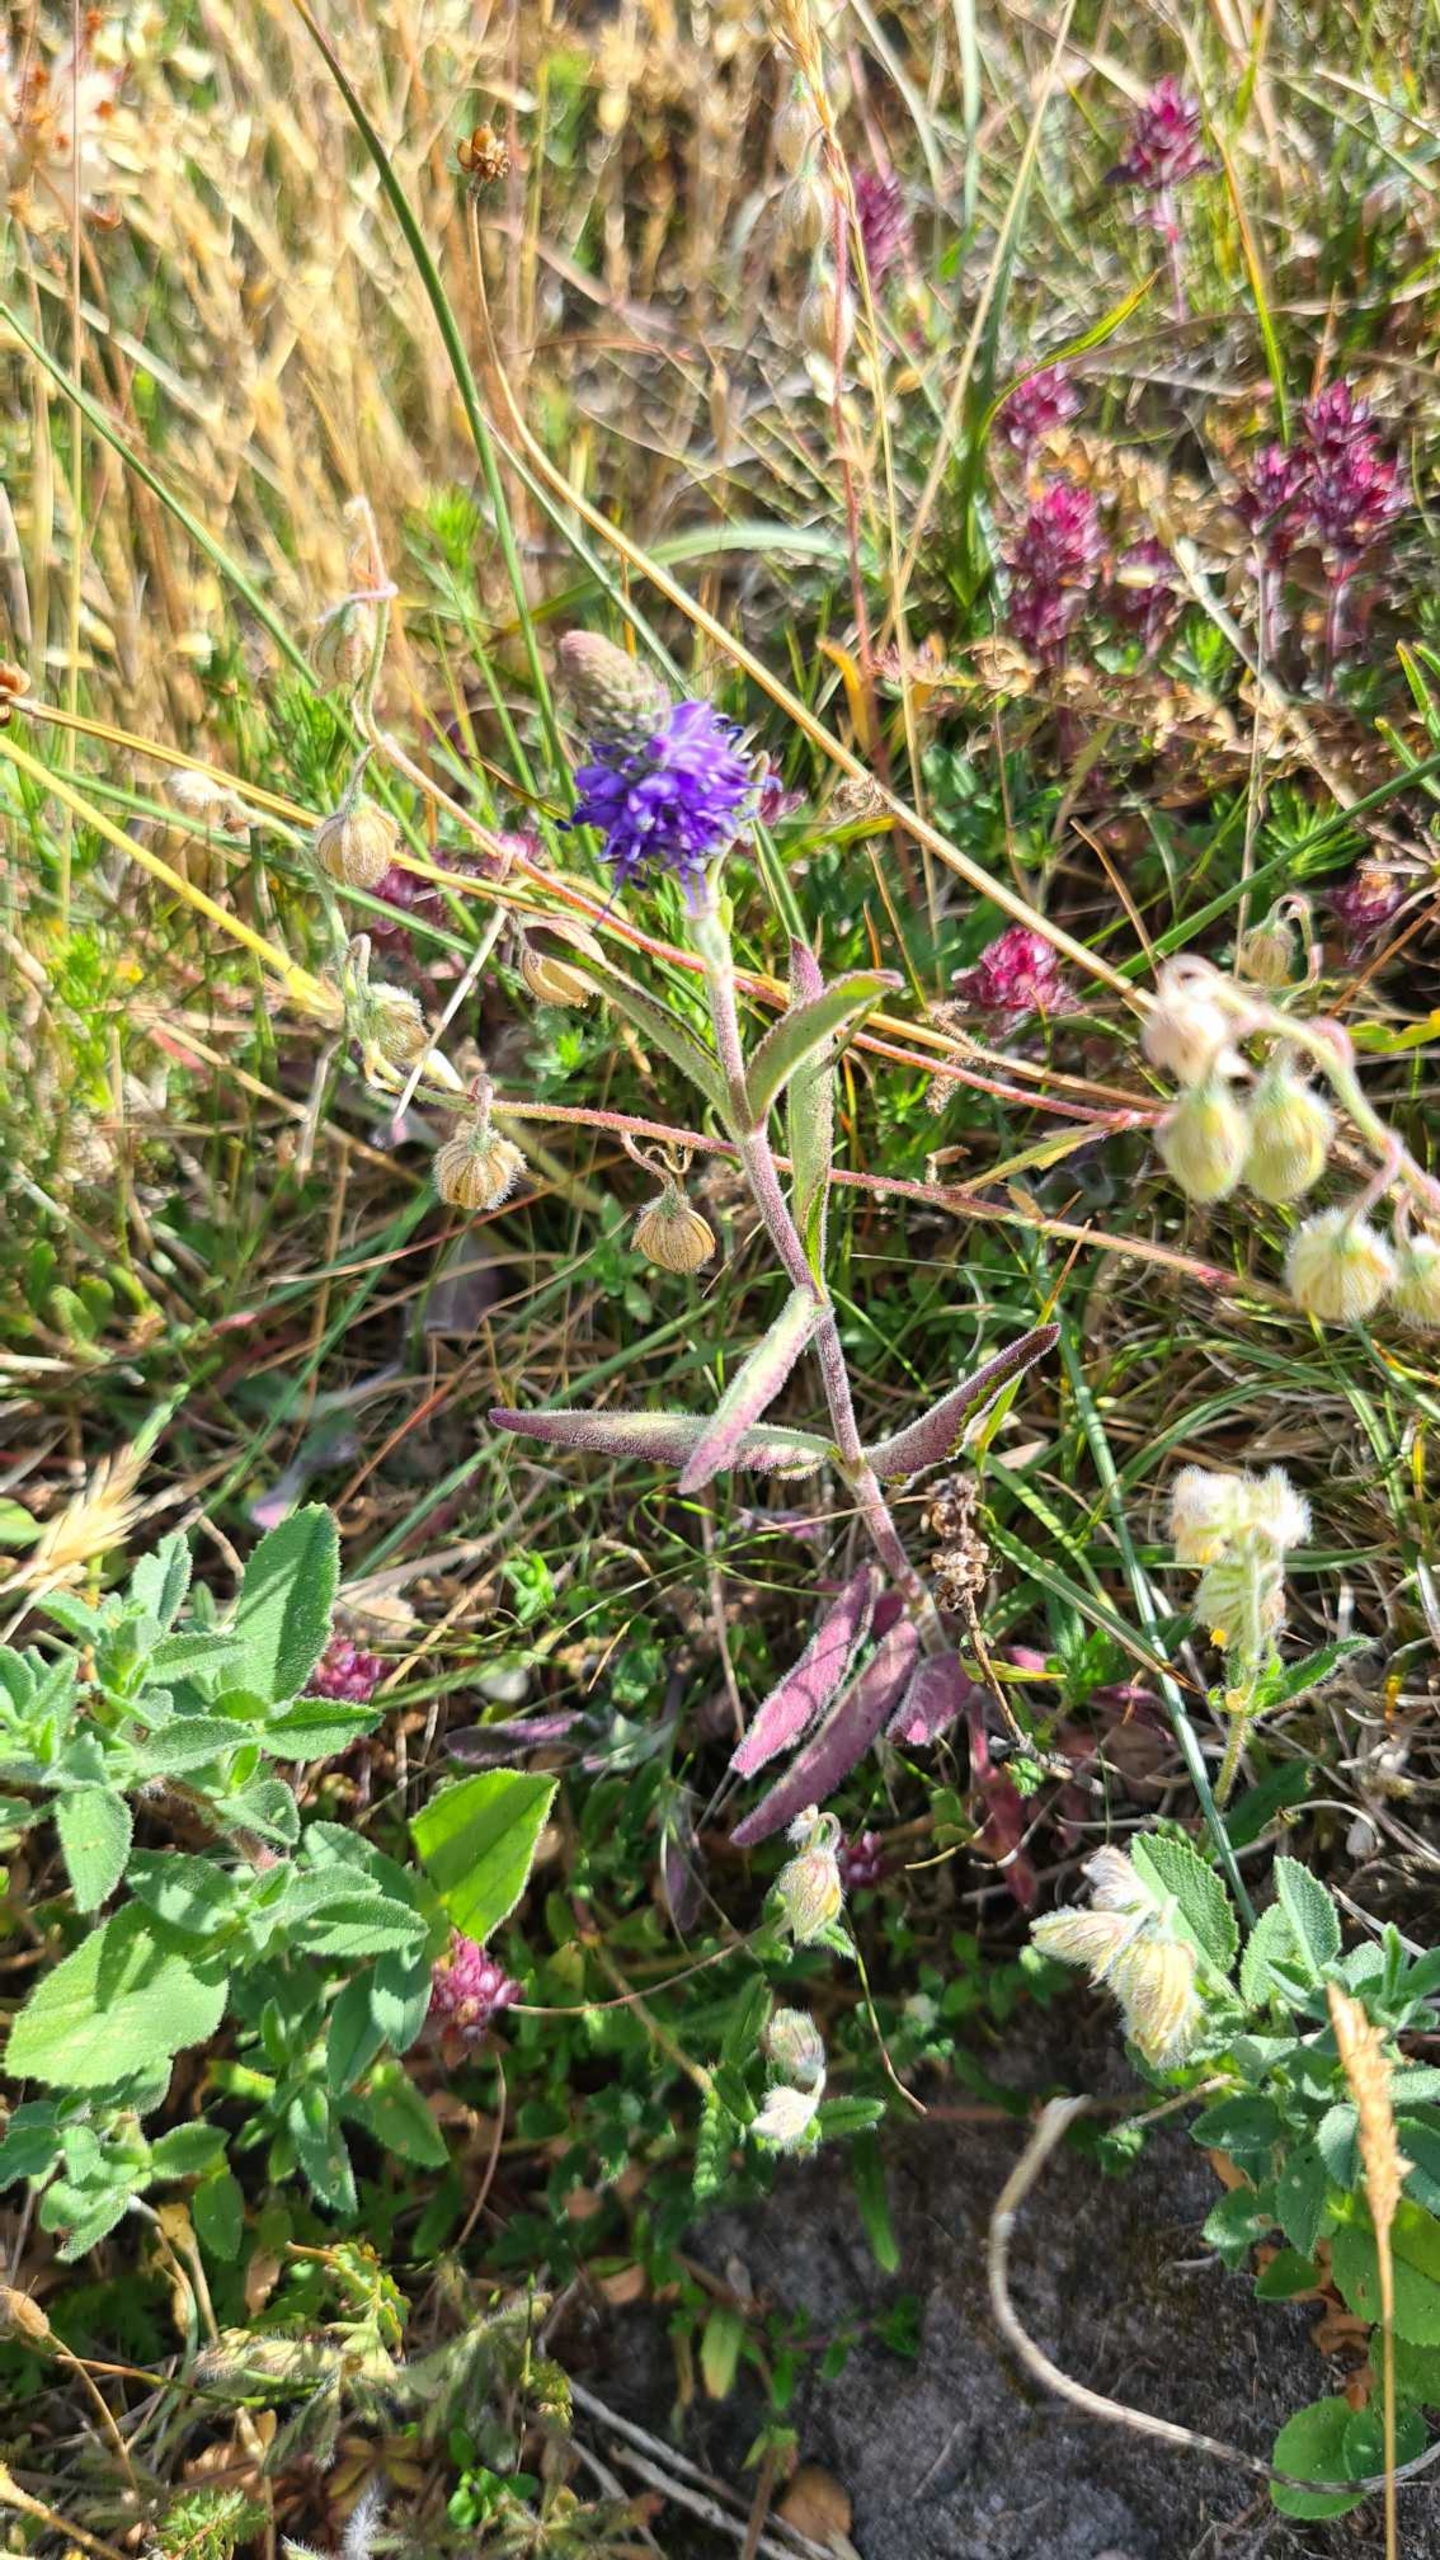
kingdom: Plantae
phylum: Tracheophyta
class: Magnoliopsida
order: Lamiales
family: Plantaginaceae
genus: Veronica
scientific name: Veronica spicata
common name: Aks-ærenpris
